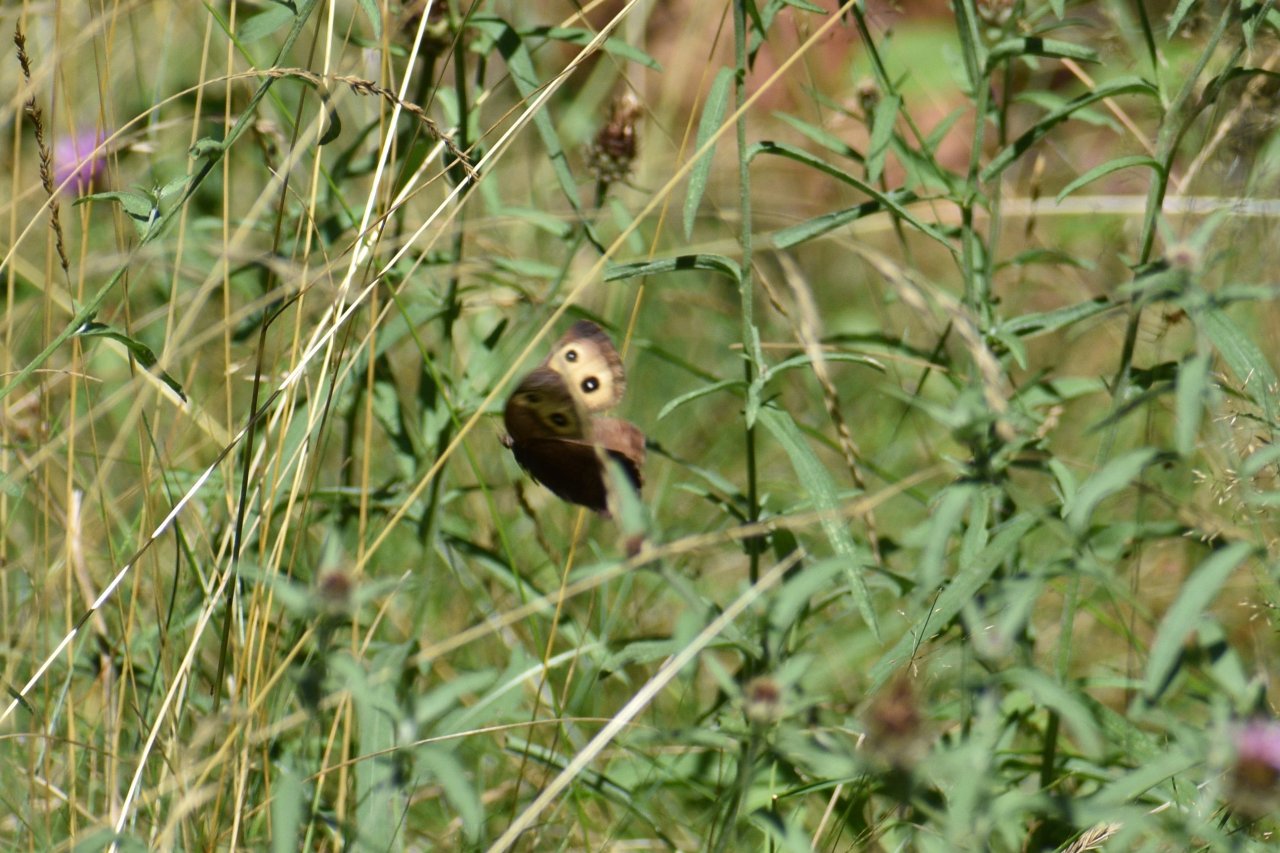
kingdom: Animalia
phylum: Arthropoda
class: Insecta
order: Lepidoptera
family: Nymphalidae
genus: Cercyonis
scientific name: Cercyonis pegala
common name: Common Wood-Nymph
